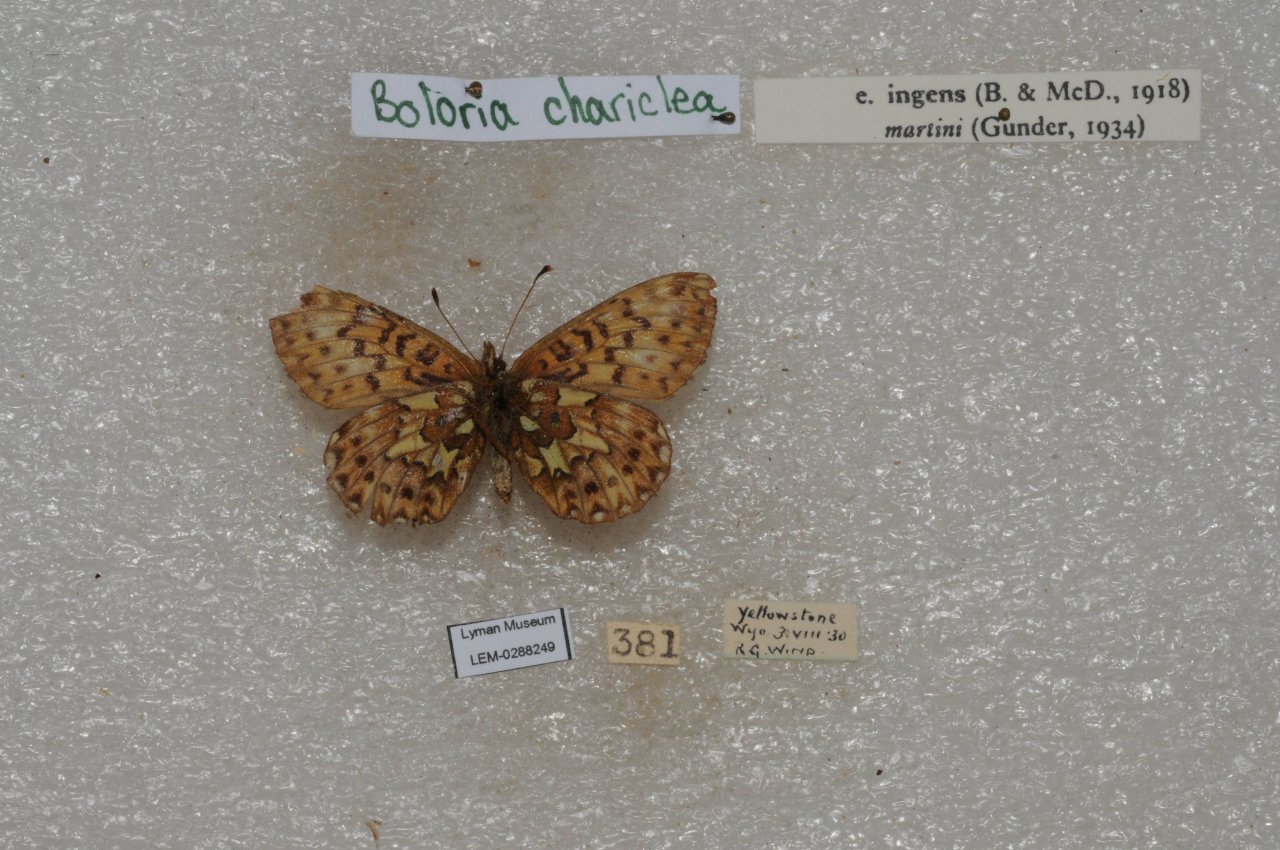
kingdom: Animalia
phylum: Arthropoda
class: Insecta
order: Lepidoptera
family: Nymphalidae
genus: Boloria
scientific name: Boloria chariclea
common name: Arctic Fritillary
